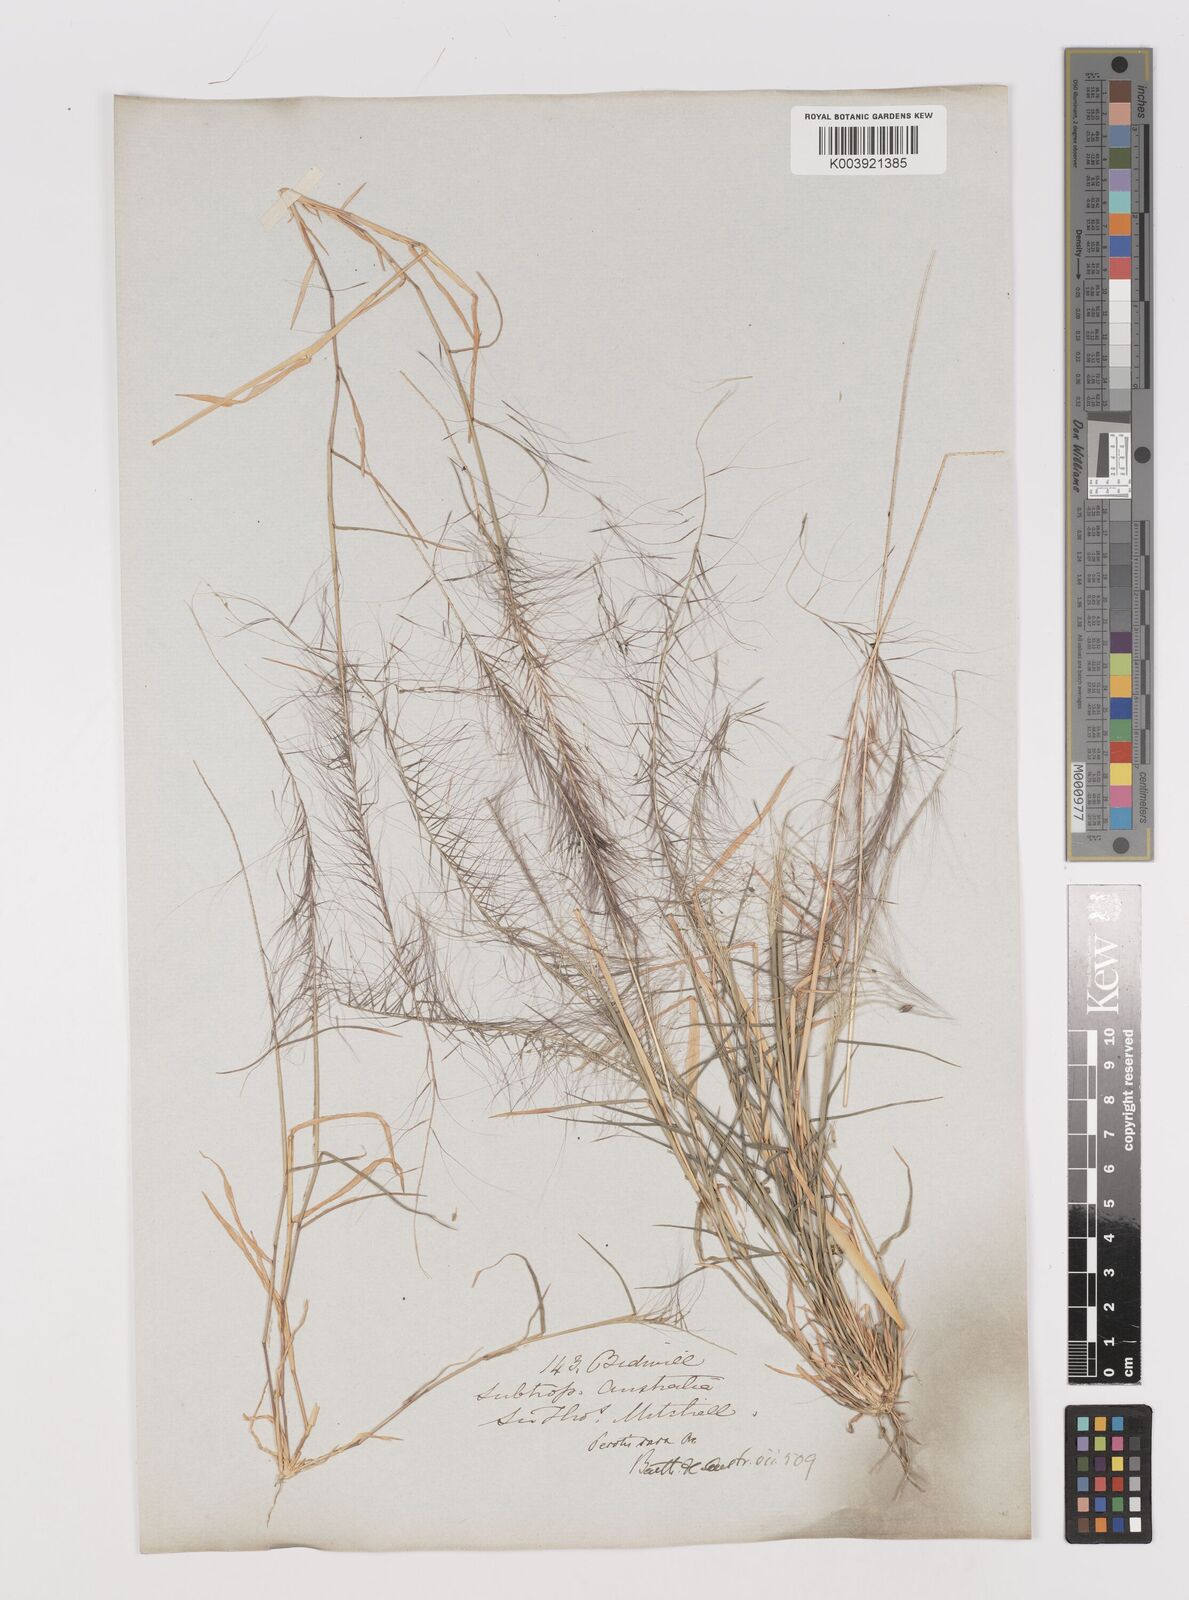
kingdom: Plantae
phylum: Tracheophyta
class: Liliopsida
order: Poales
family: Poaceae
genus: Perotis
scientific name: Perotis rara
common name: Comet grass
